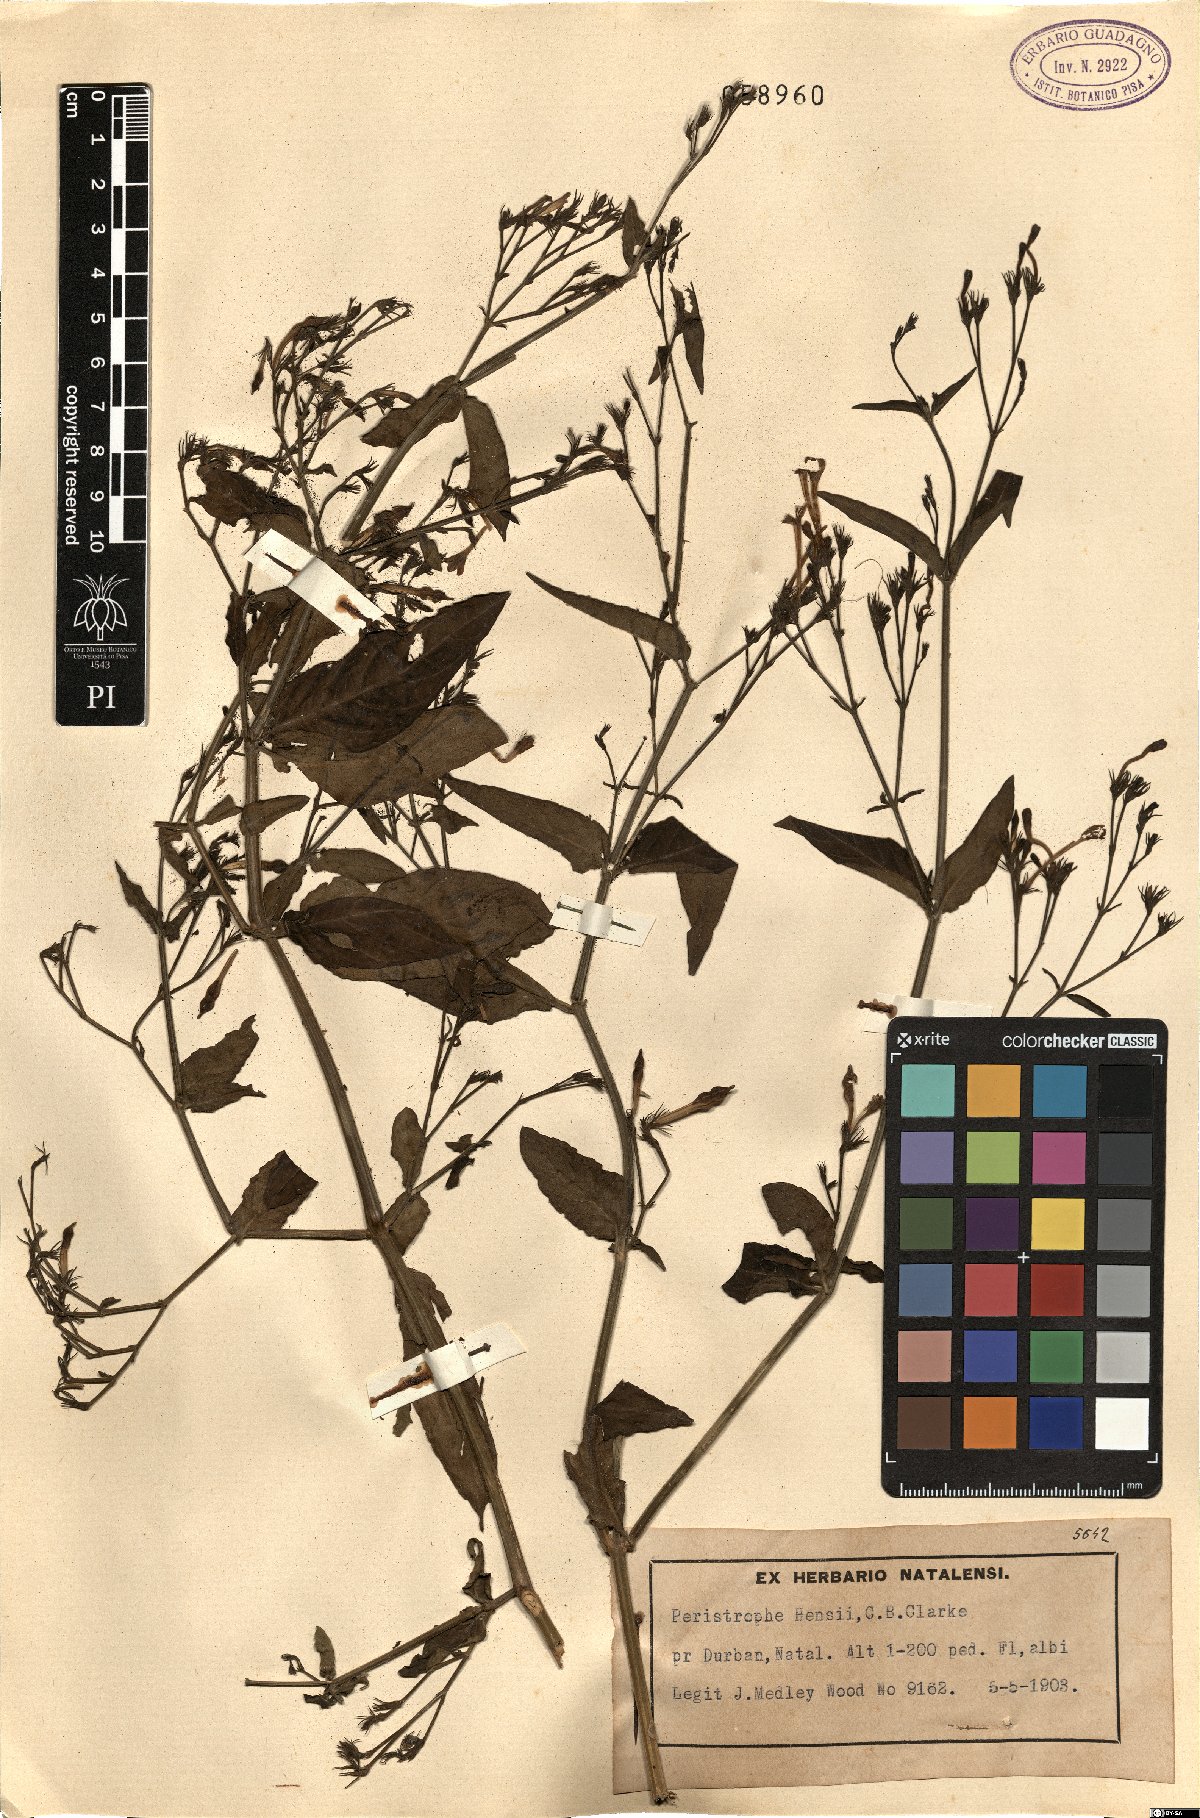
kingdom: Plantae
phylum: Tracheophyta
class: Magnoliopsida
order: Lamiales
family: Acanthaceae
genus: Dicliptera
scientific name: Dicliptera hensii
